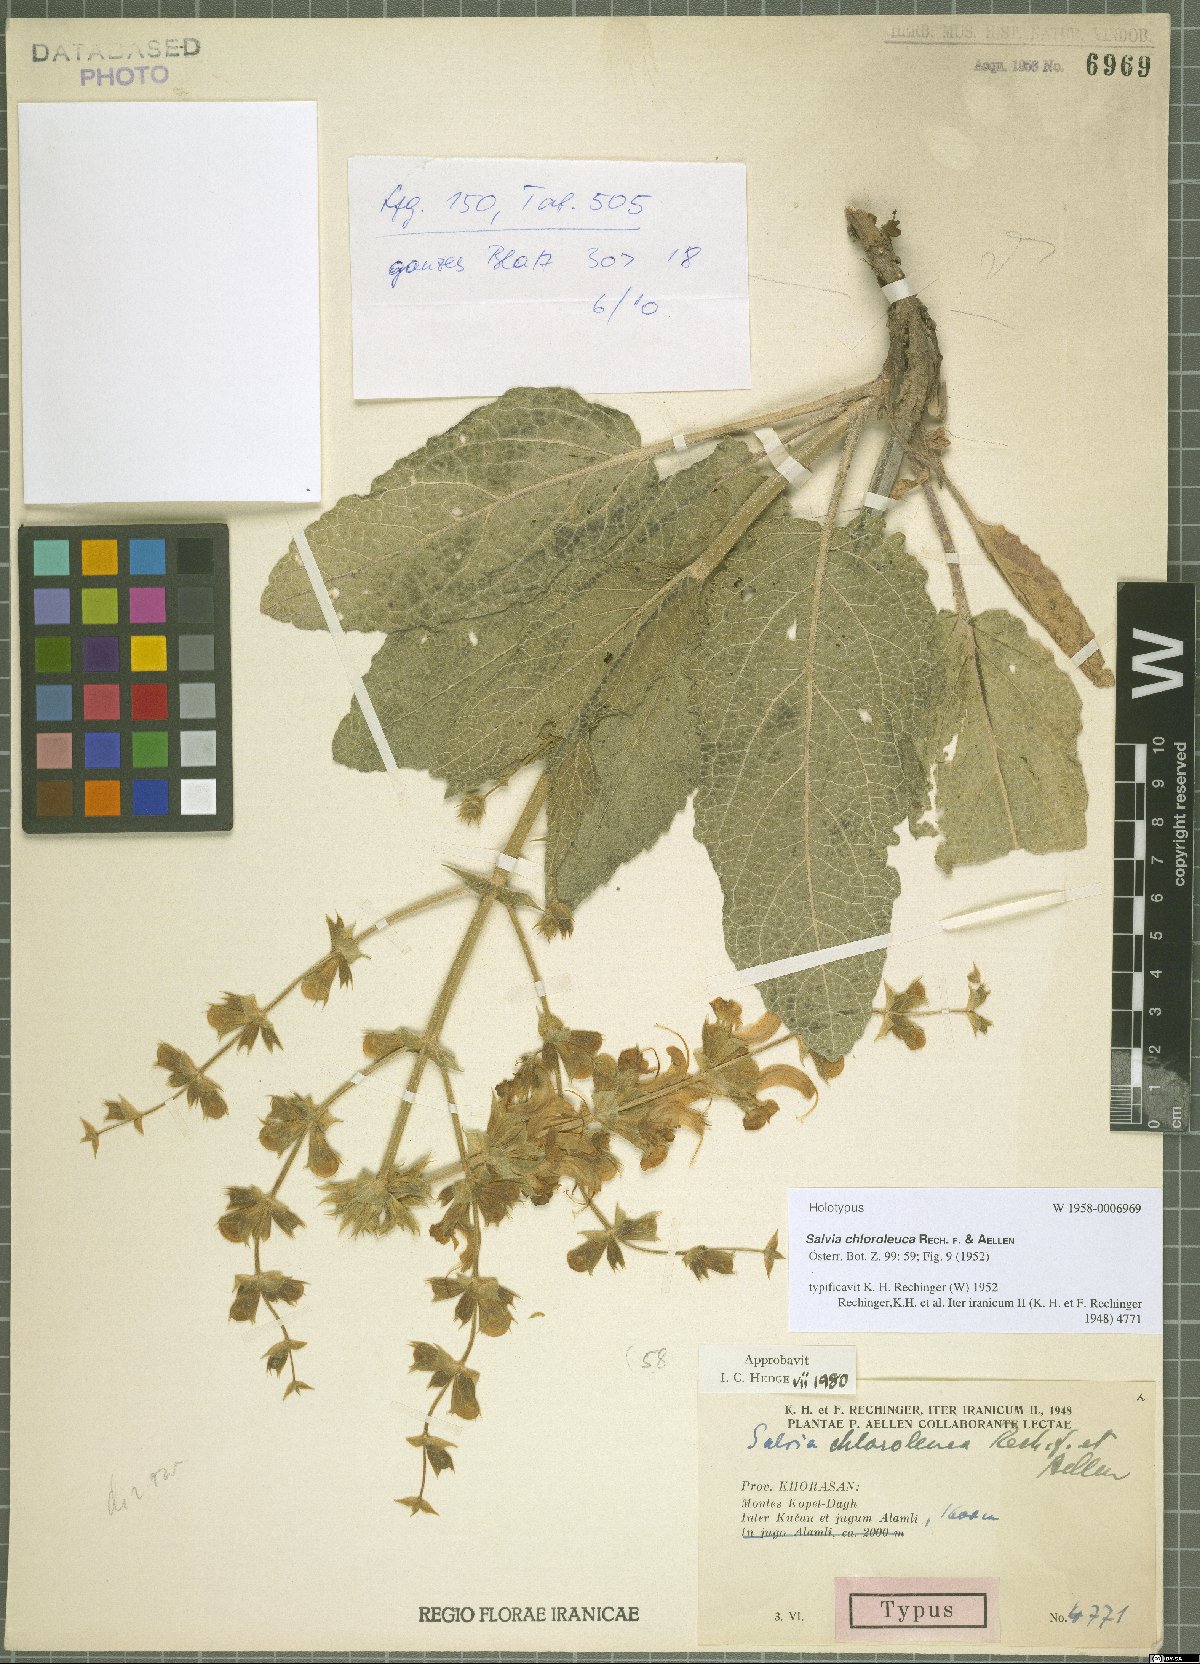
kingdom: Plantae
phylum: Tracheophyta
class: Magnoliopsida
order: Lamiales
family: Lamiaceae
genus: Salvia
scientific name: Salvia chloroleuca
